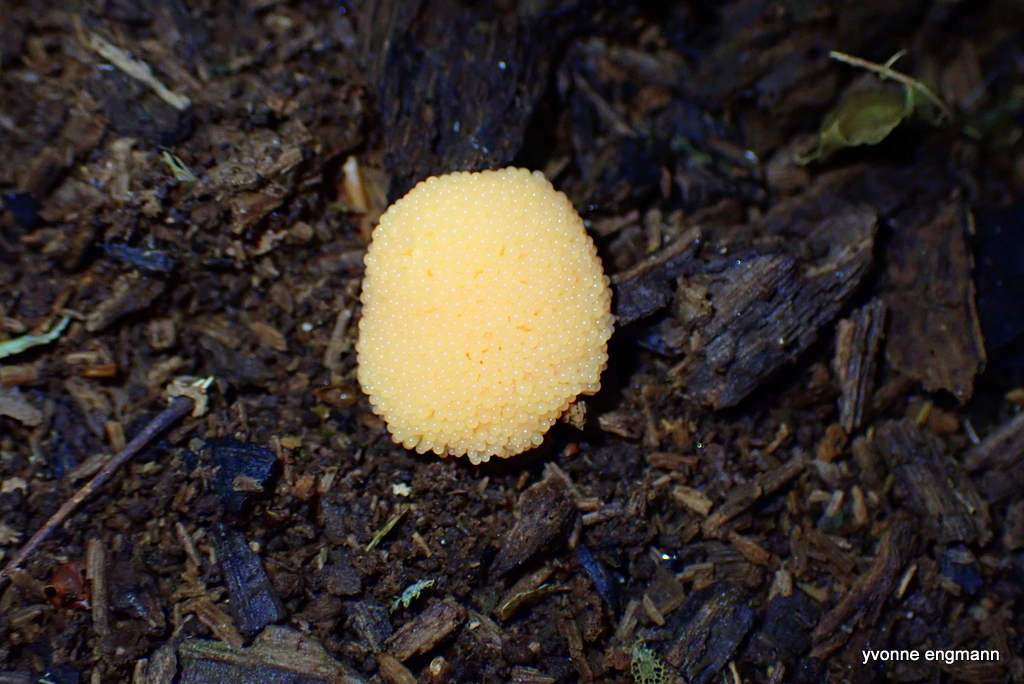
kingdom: Protozoa
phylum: Mycetozoa
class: Myxomycetes
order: Cribrariales
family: Tubiferaceae
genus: Tubifera
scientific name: Tubifera ferruginosa
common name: kanel-støvrør
